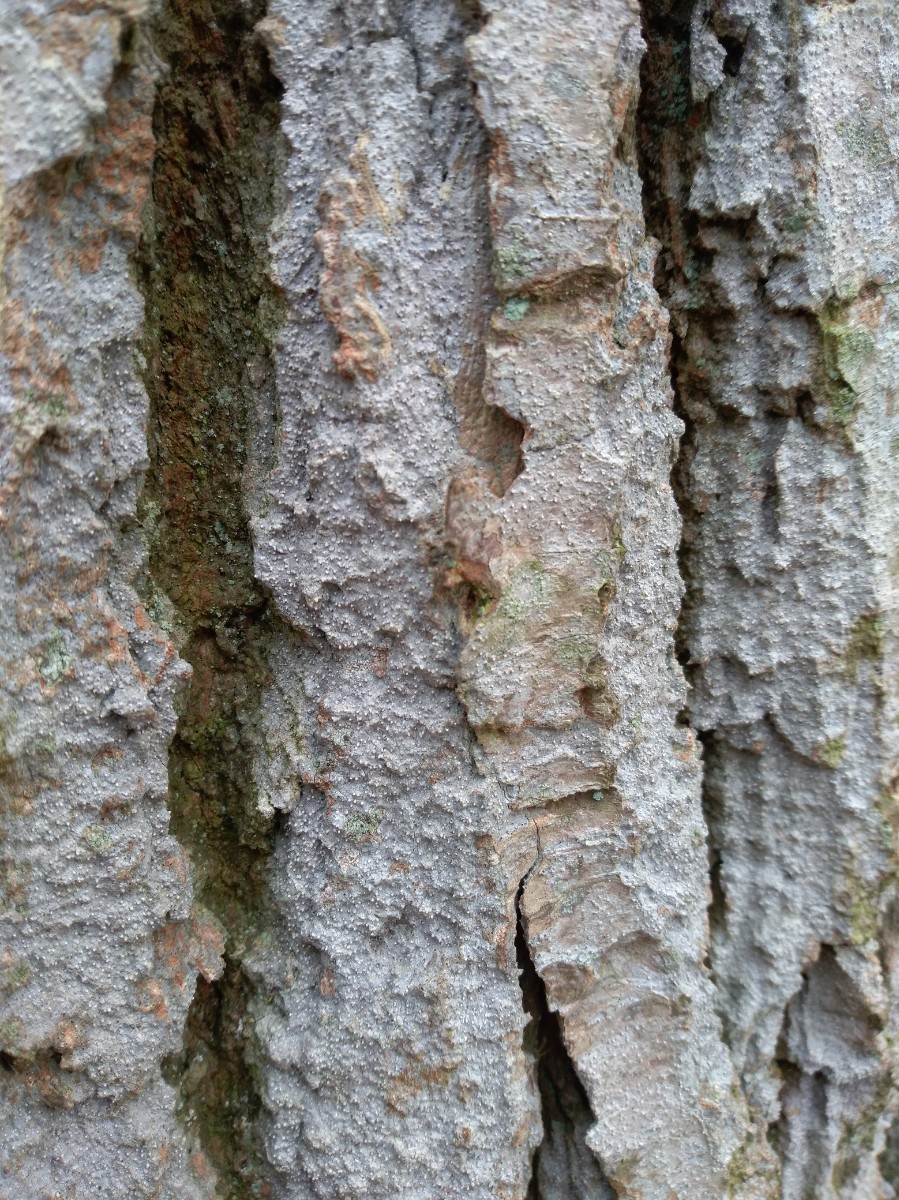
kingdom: Fungi
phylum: Ascomycota
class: Arthoniomycetes
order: Arthoniales
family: Roccellaceae
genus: Lecanactis
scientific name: Lecanactis abietina
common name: grå dugskivelav
